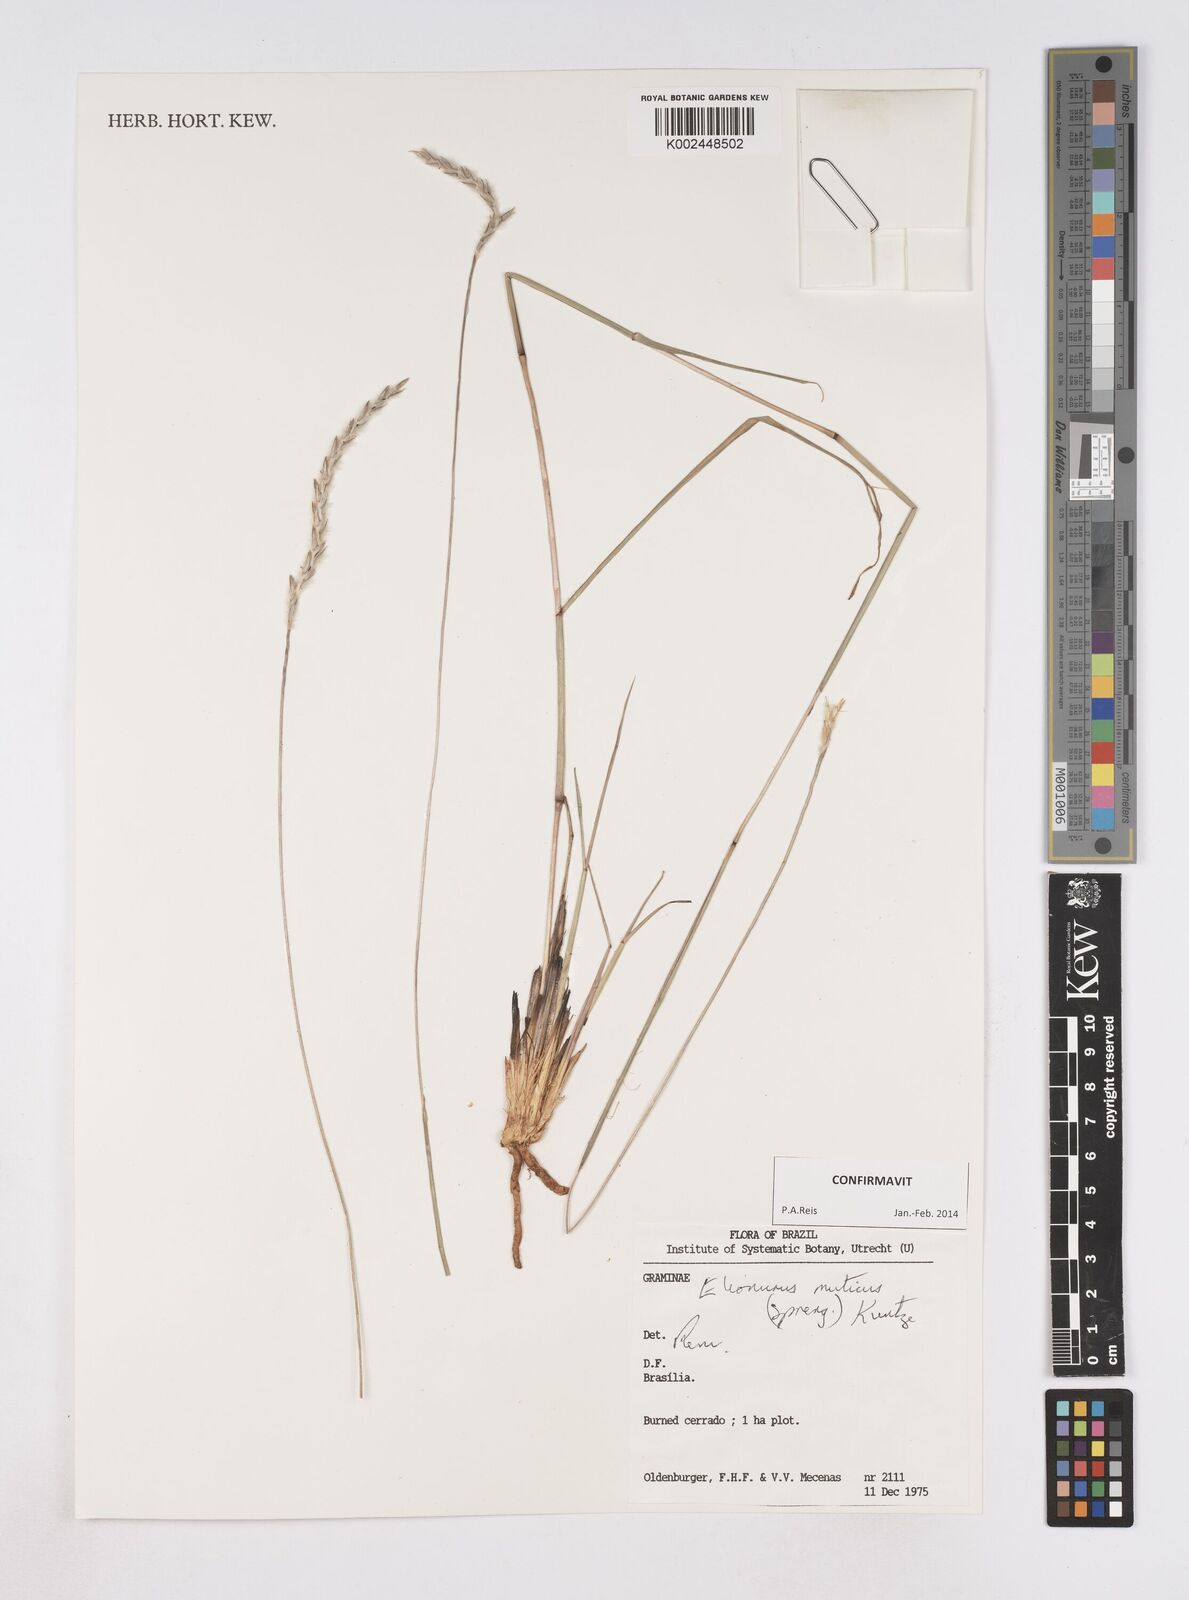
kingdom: Plantae
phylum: Tracheophyta
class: Liliopsida
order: Poales
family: Poaceae
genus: Elionurus
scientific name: Elionurus muticus
